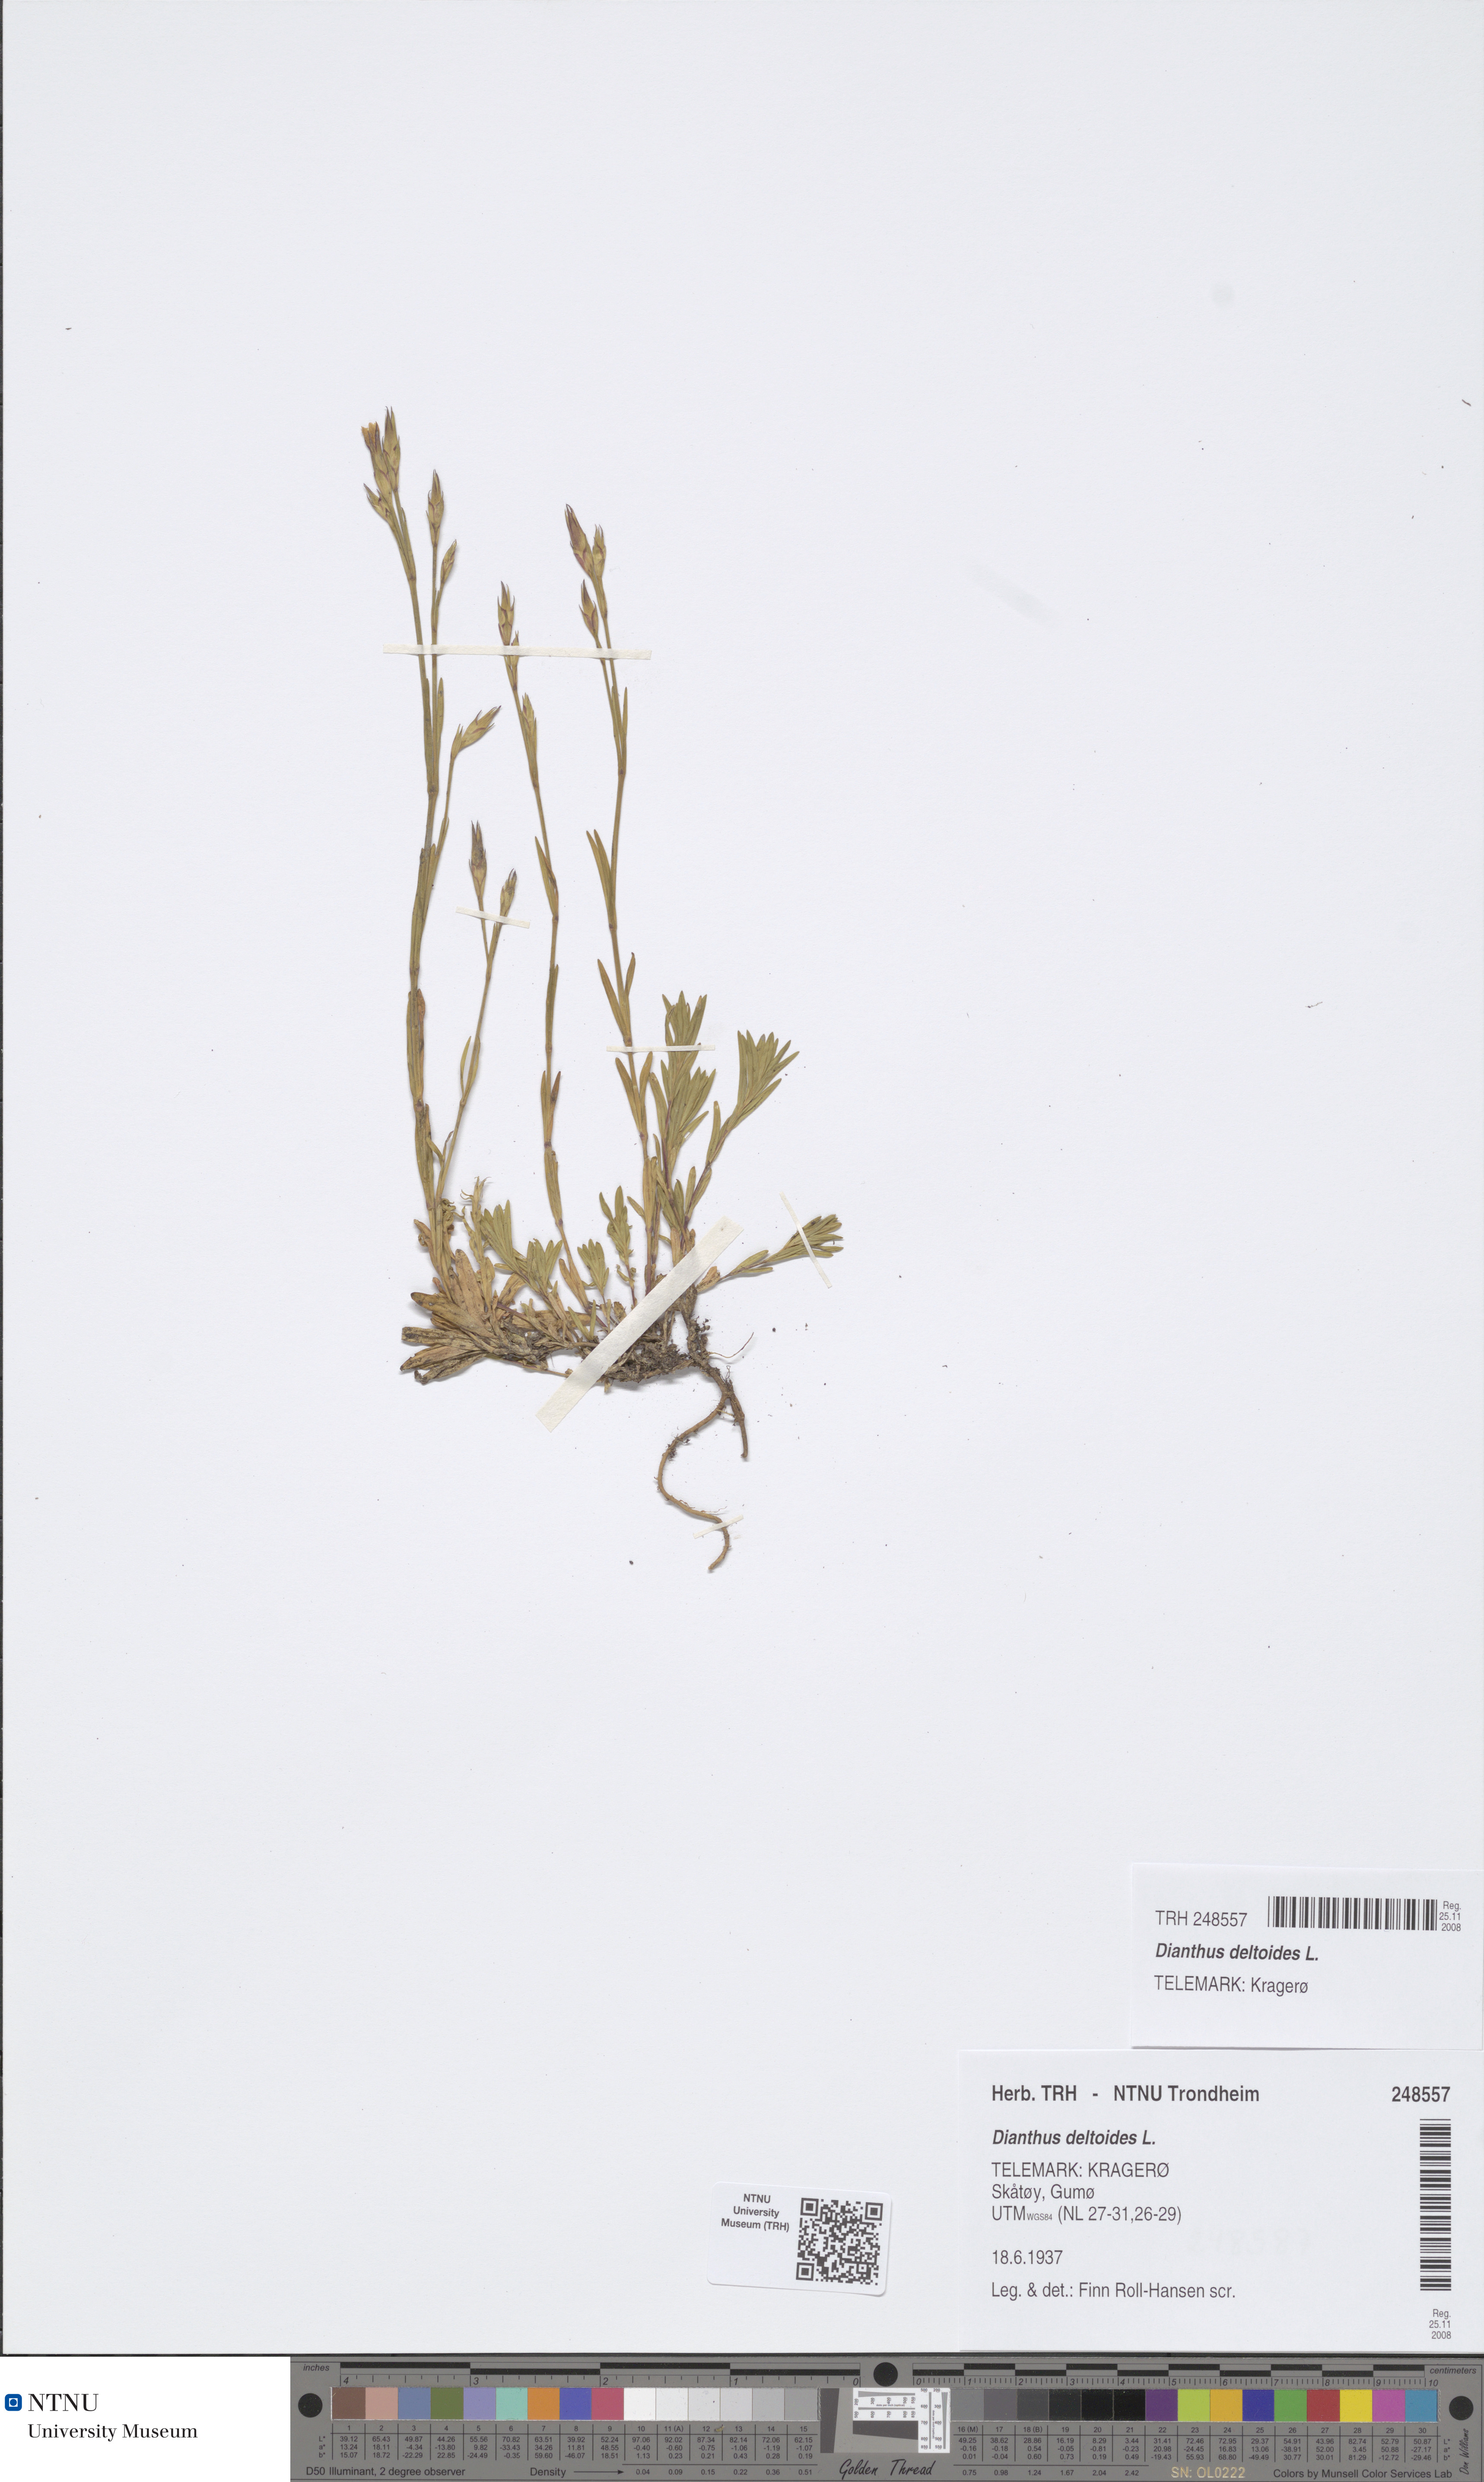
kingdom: Plantae
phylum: Tracheophyta
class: Magnoliopsida
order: Caryophyllales
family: Caryophyllaceae
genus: Dianthus
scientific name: Dianthus deltoides
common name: Maiden pink
